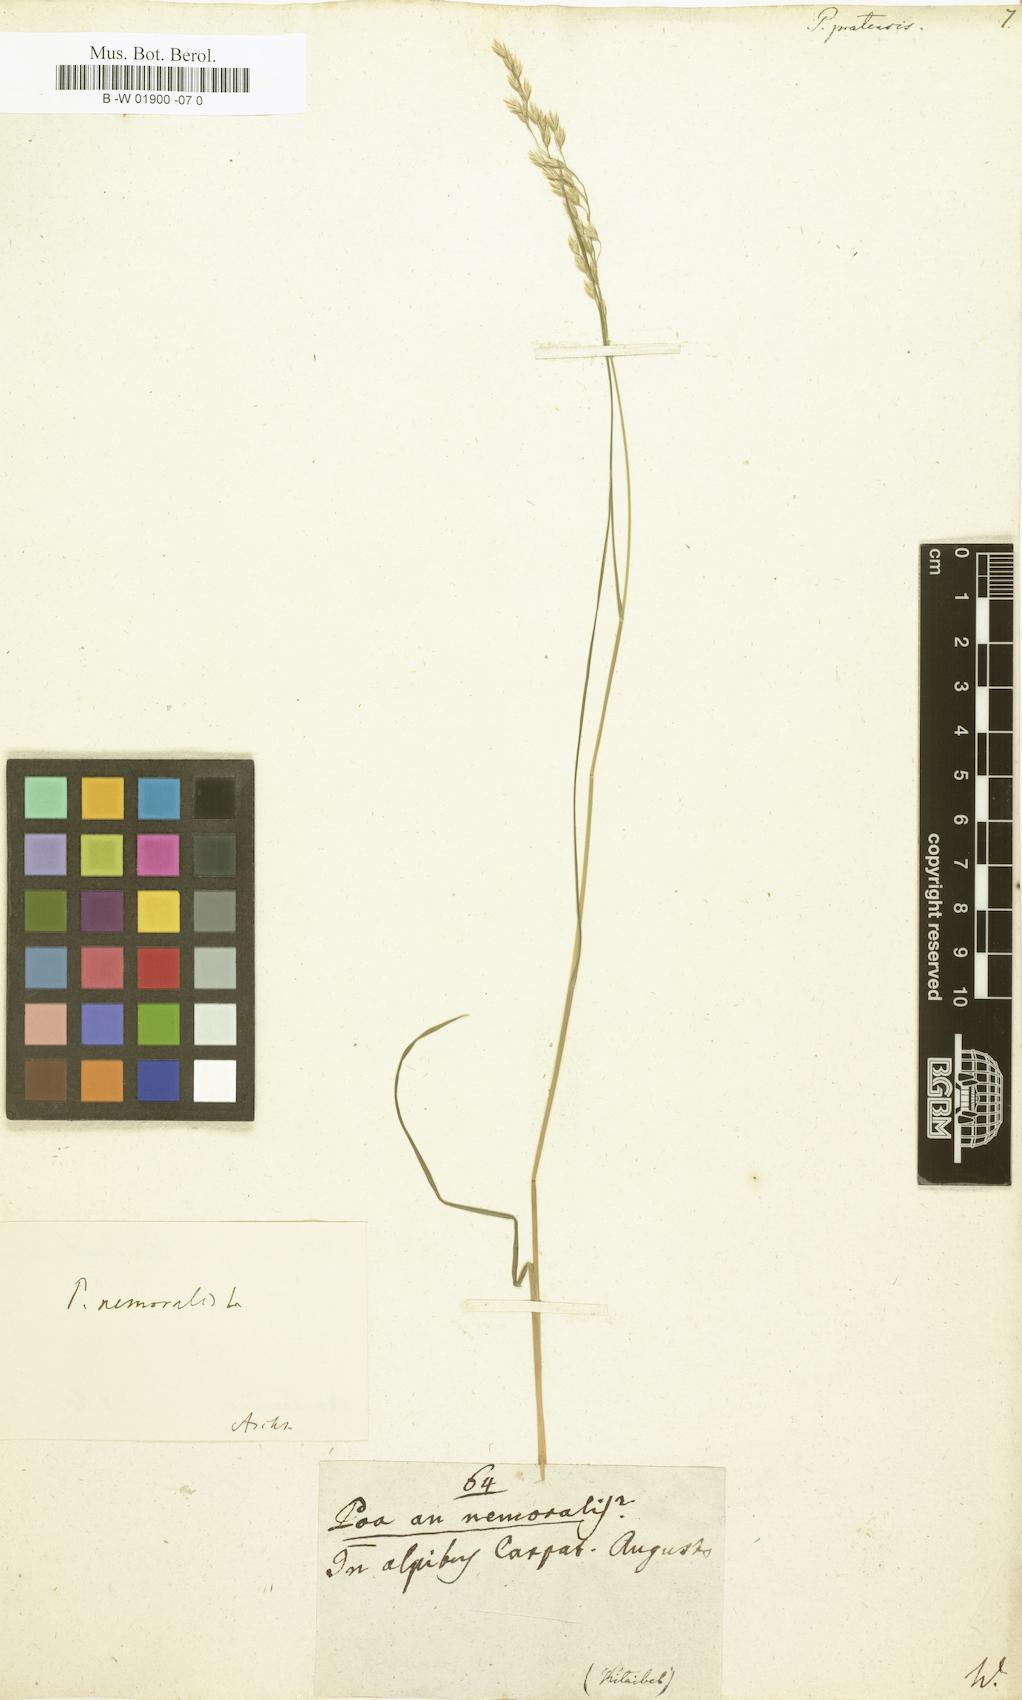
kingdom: Plantae
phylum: Tracheophyta
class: Liliopsida
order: Poales
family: Poaceae
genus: Poa
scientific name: Poa pratensis
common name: Kentucky bluegrass
